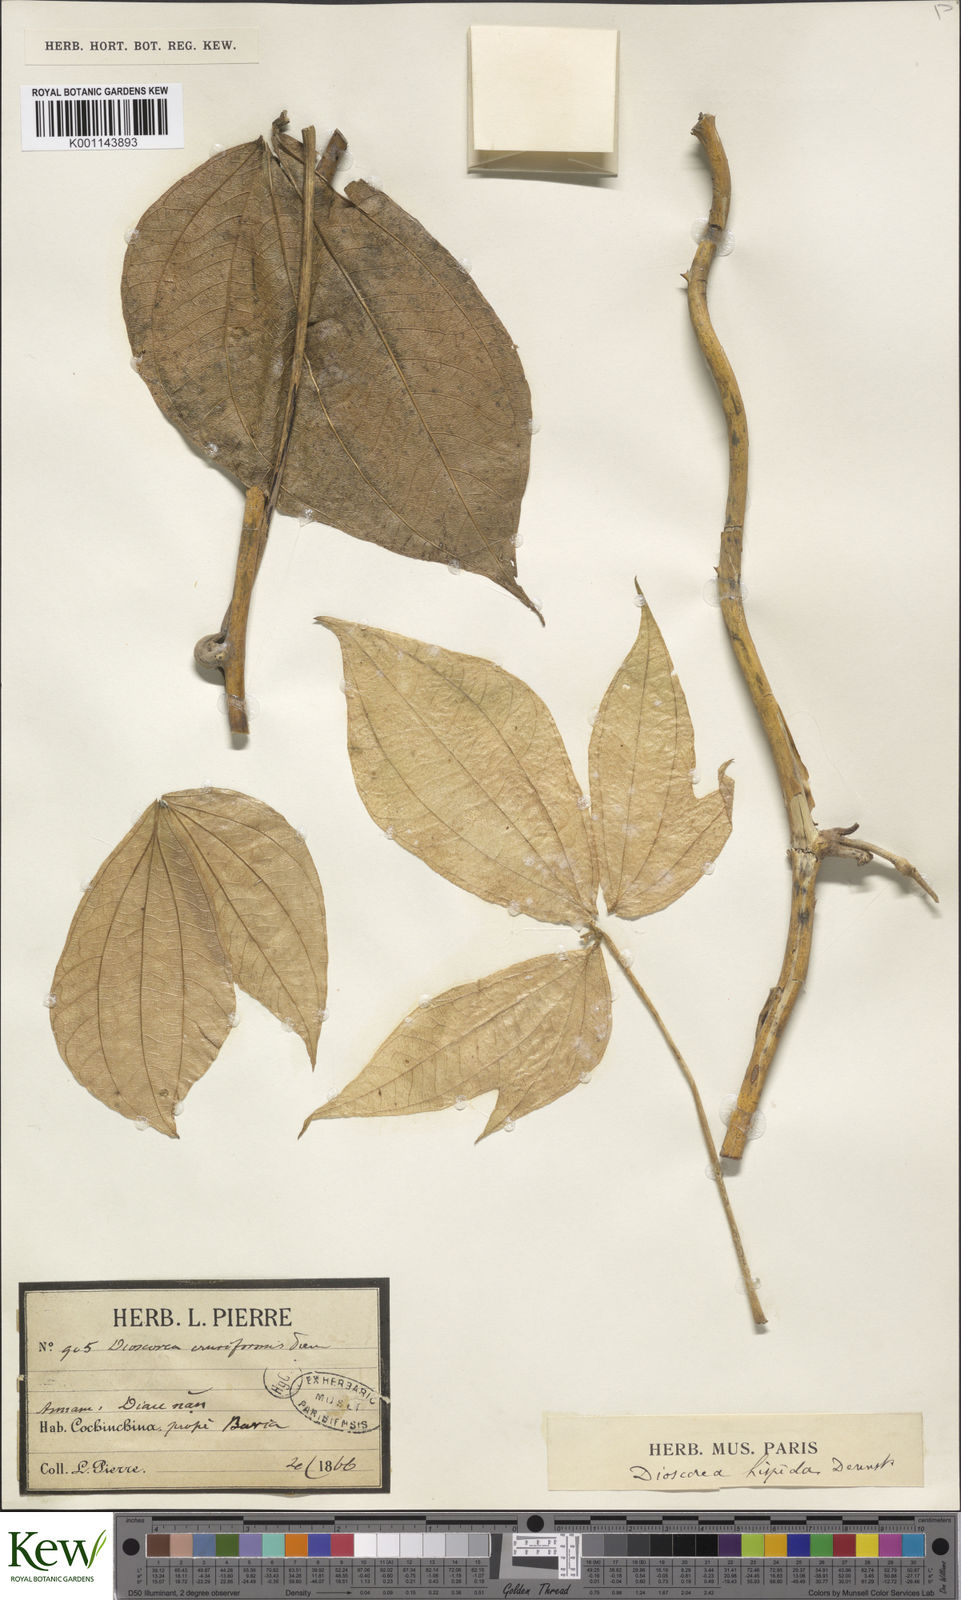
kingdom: Plantae
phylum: Tracheophyta
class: Liliopsida
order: Dioscoreales
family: Dioscoreaceae
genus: Dioscorea
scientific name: Dioscorea hispida
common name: Asiatic bitter yam
